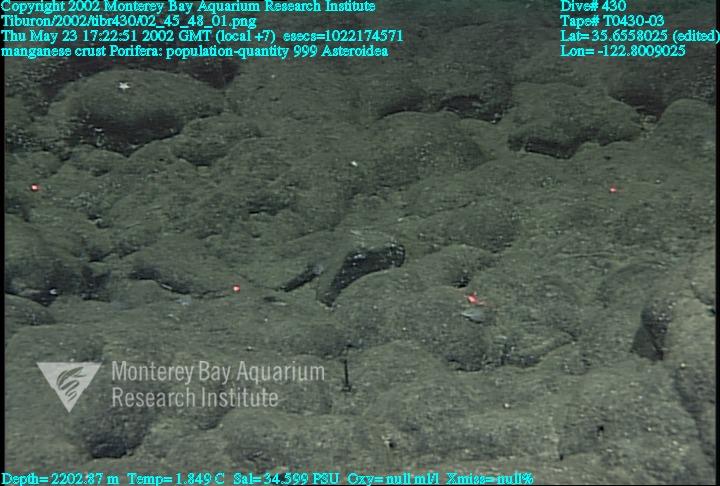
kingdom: Animalia
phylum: Porifera
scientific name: Porifera
